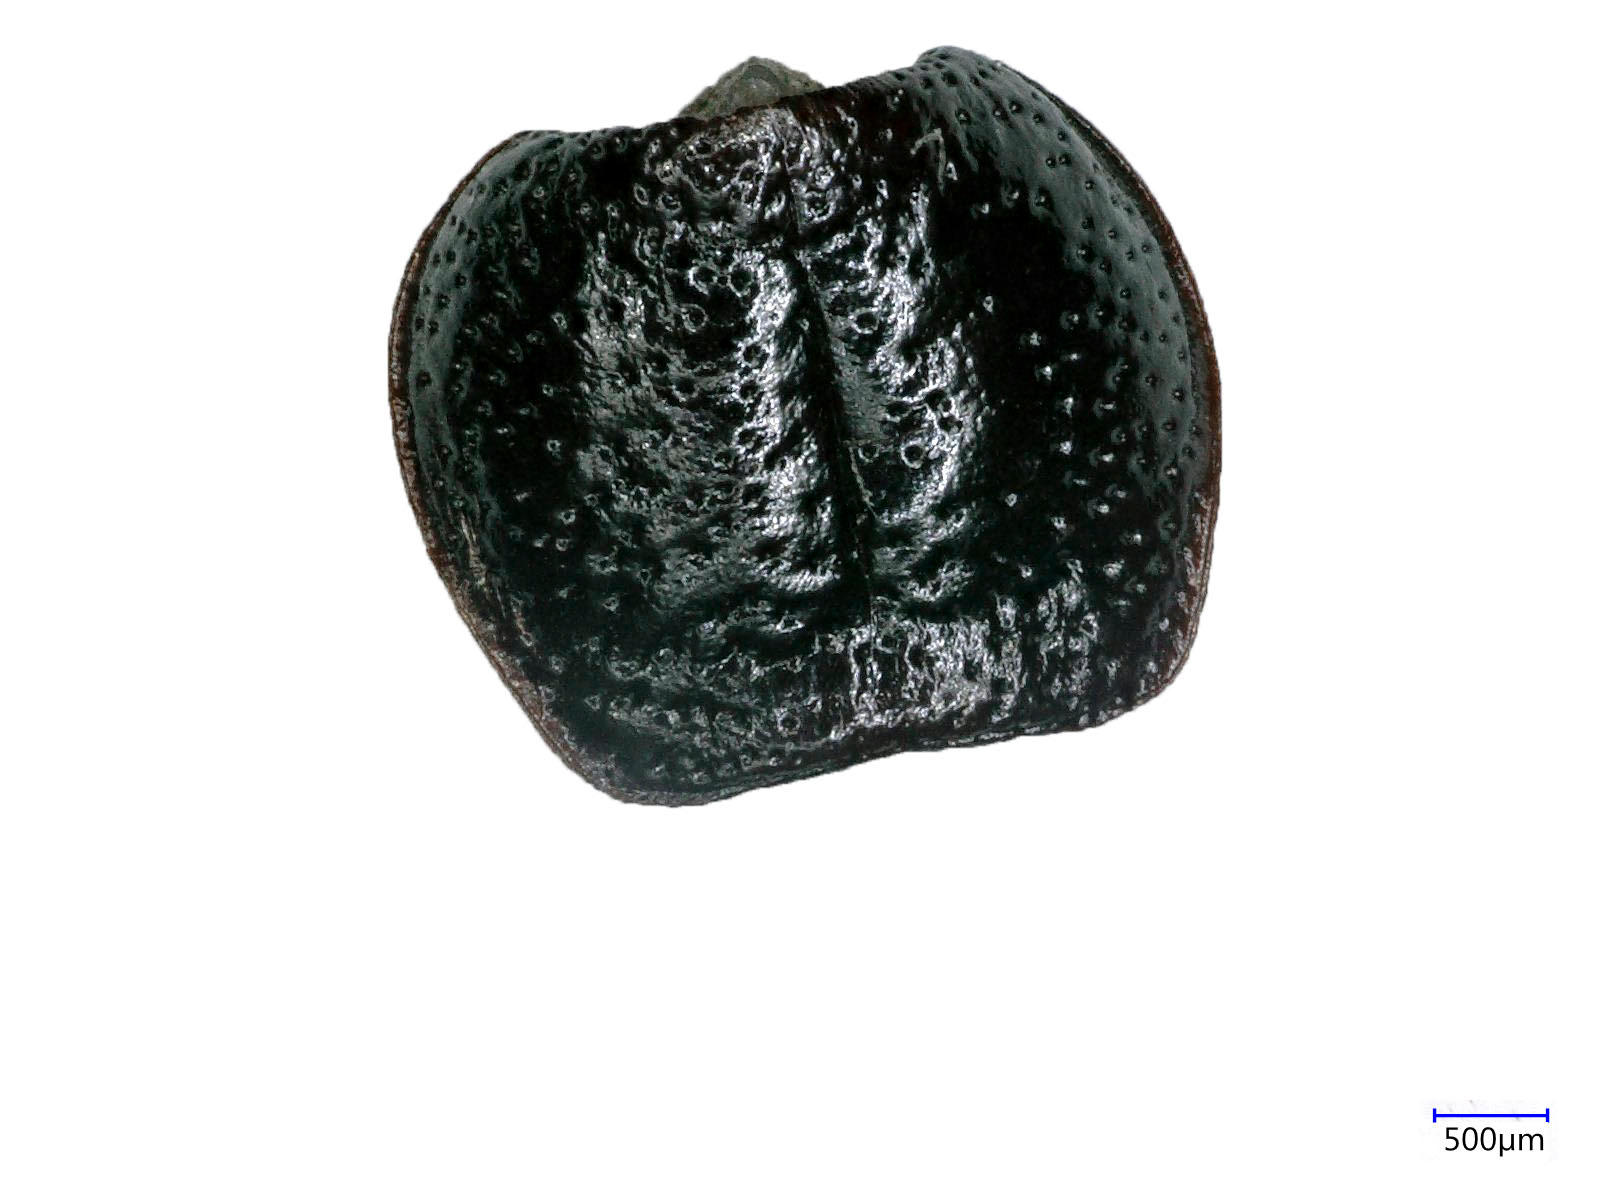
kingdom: Animalia
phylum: Arthropoda
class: Insecta
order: Coleoptera
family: Carabidae
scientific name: Carabidae
